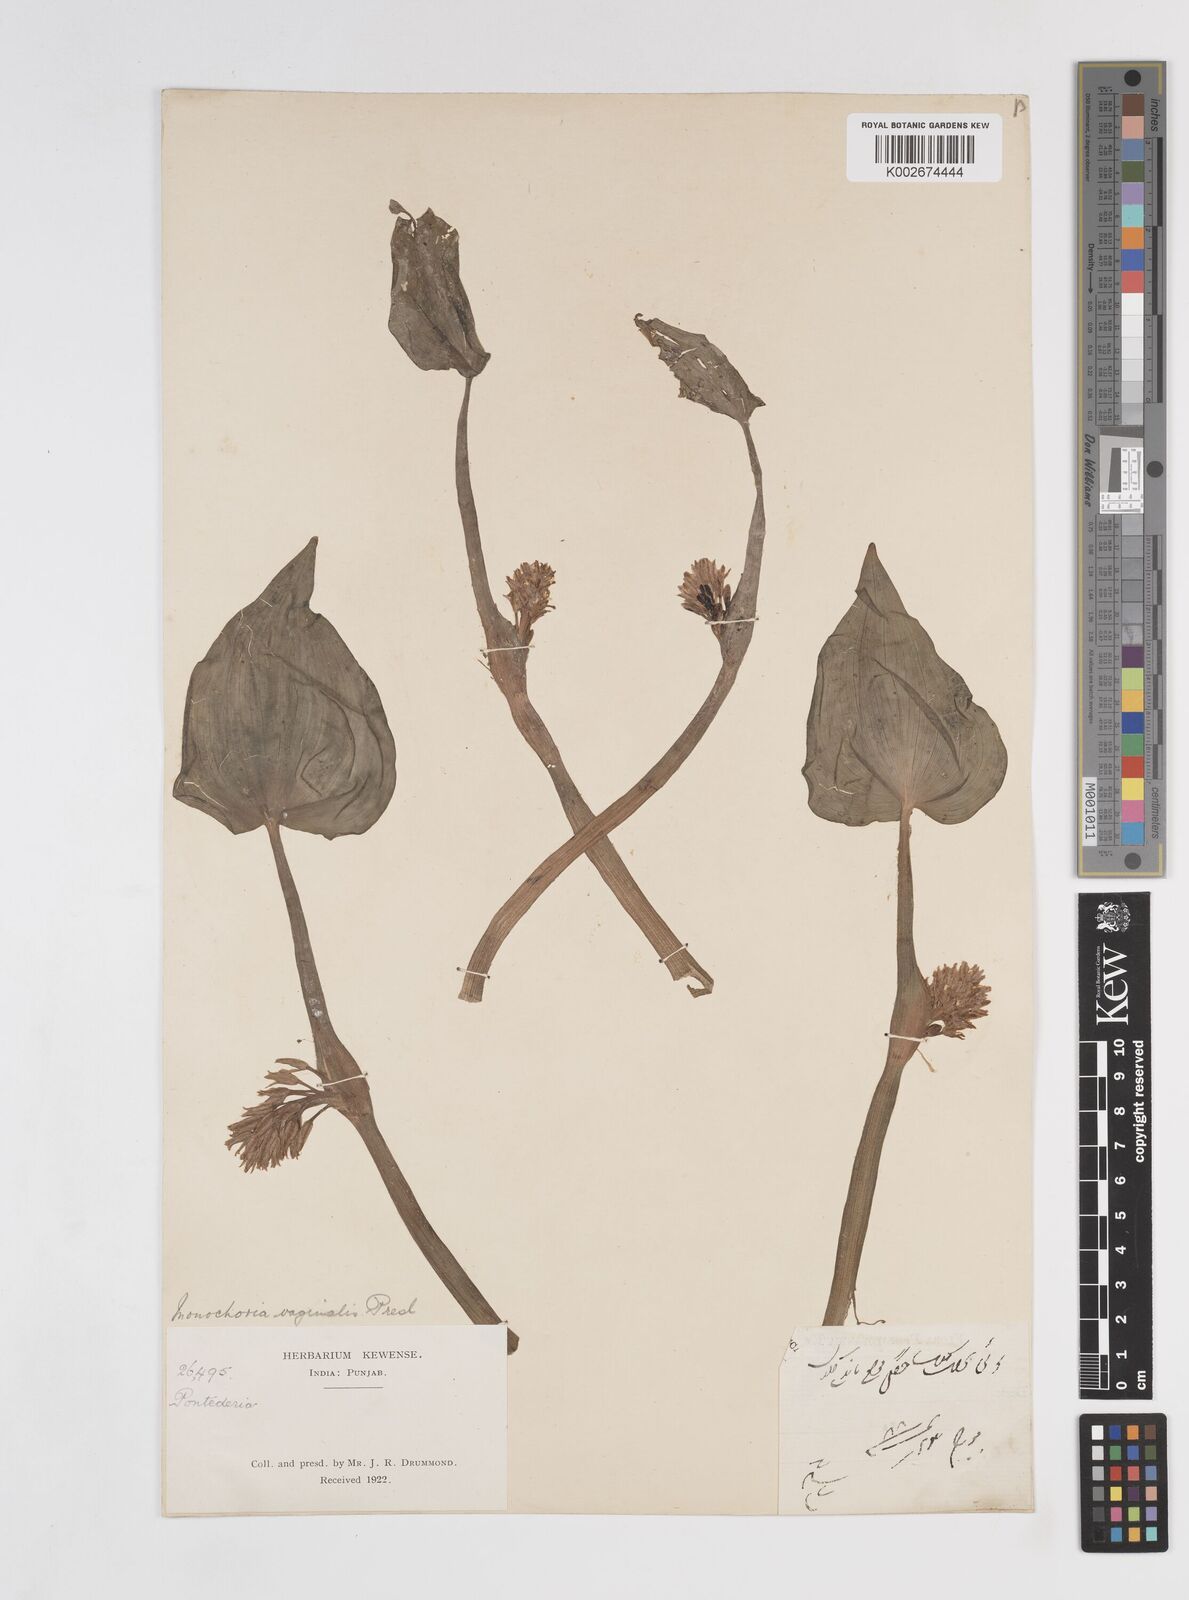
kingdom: Plantae
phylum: Tracheophyta
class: Liliopsida
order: Commelinales
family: Pontederiaceae
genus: Pontederia
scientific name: Pontederia vaginalis
